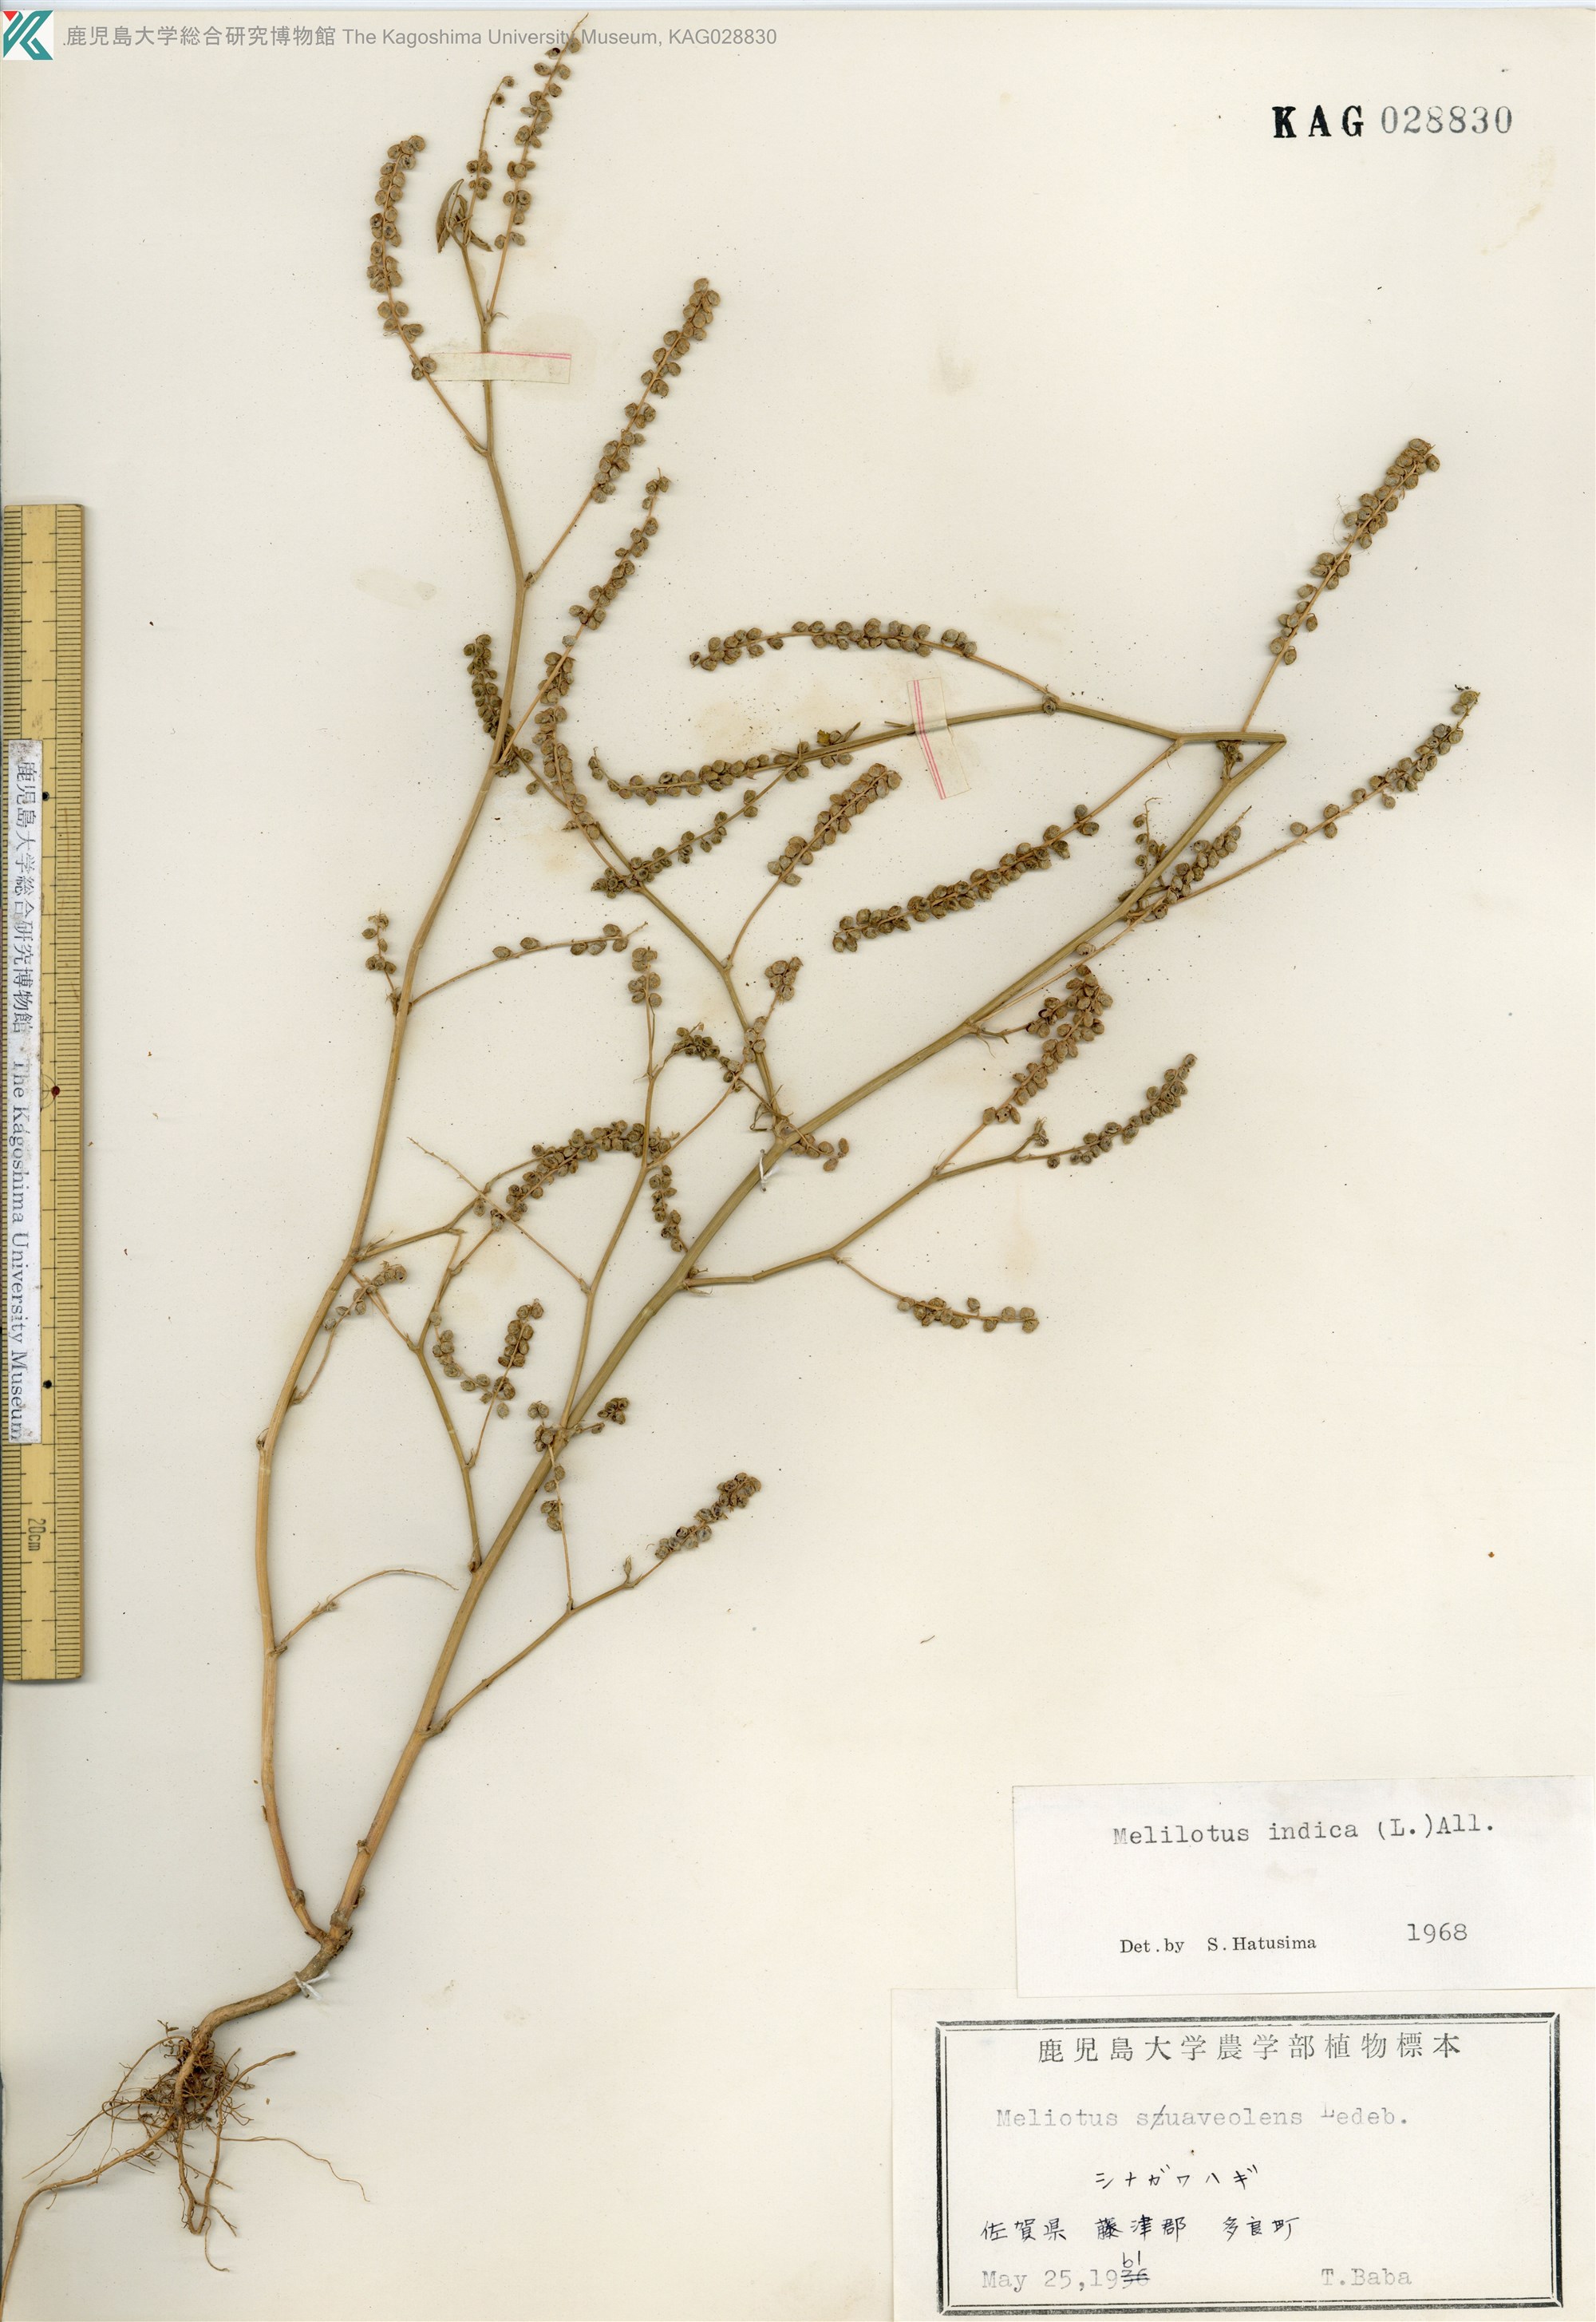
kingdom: Plantae
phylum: Tracheophyta
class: Magnoliopsida
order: Fabales
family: Fabaceae
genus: Melilotus
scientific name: Melilotus indicus
